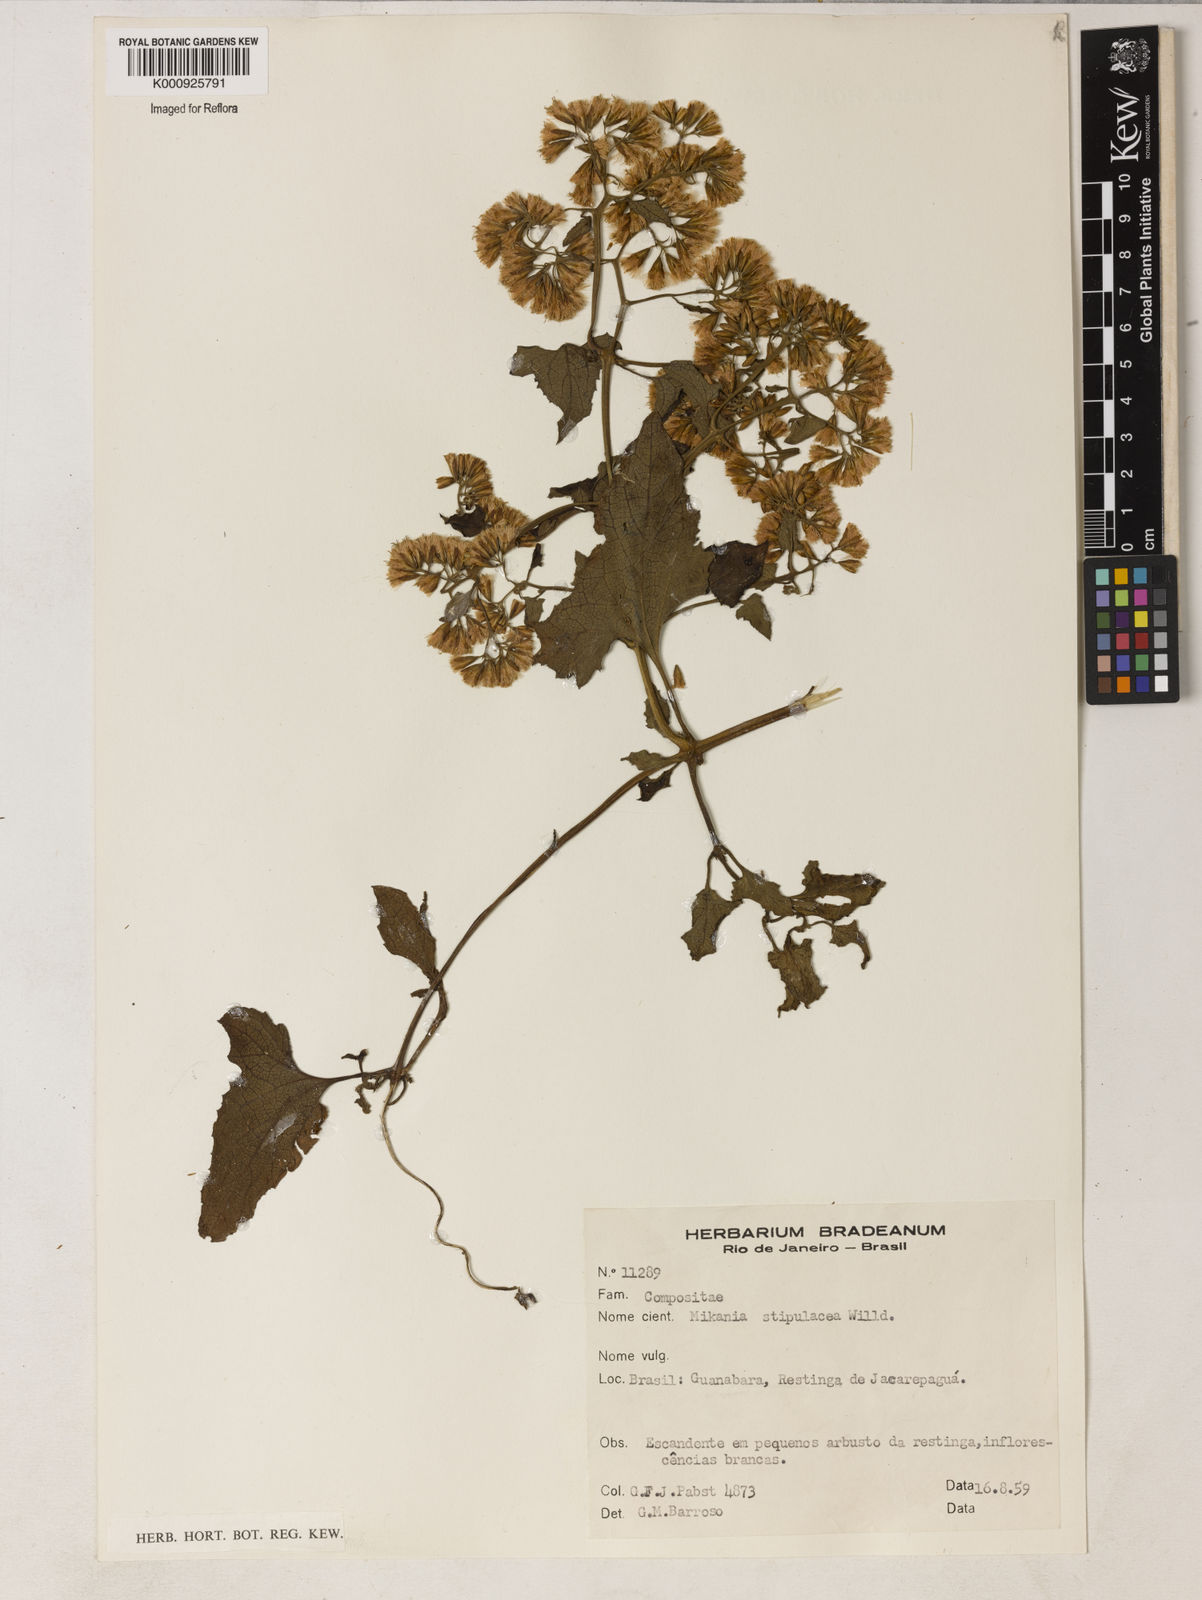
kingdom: Plantae
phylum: Tracheophyta
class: Magnoliopsida
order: Asterales
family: Asteraceae
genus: Mikania
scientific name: Mikania stipulacea
